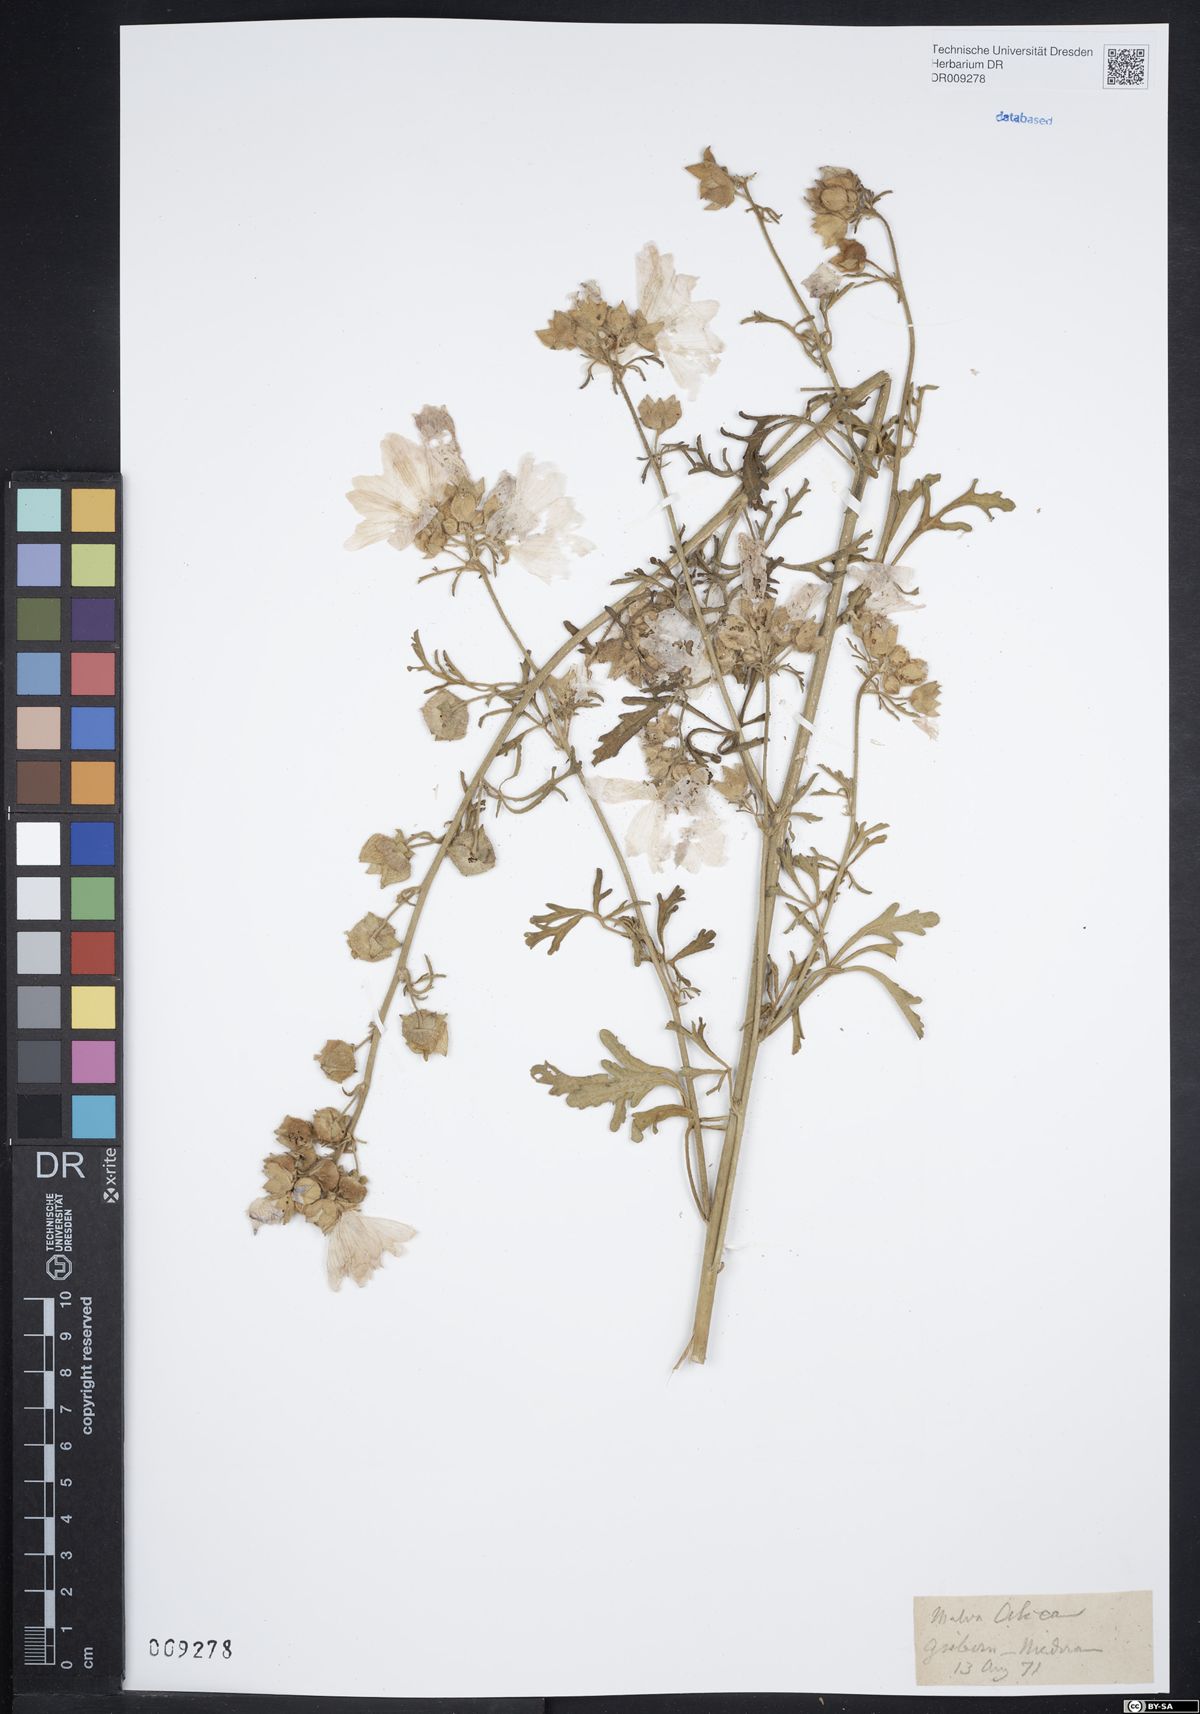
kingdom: Plantae
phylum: Tracheophyta
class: Magnoliopsida
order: Malvales
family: Malvaceae
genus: Malva
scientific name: Malva alcea
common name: Greater musk-mallow
